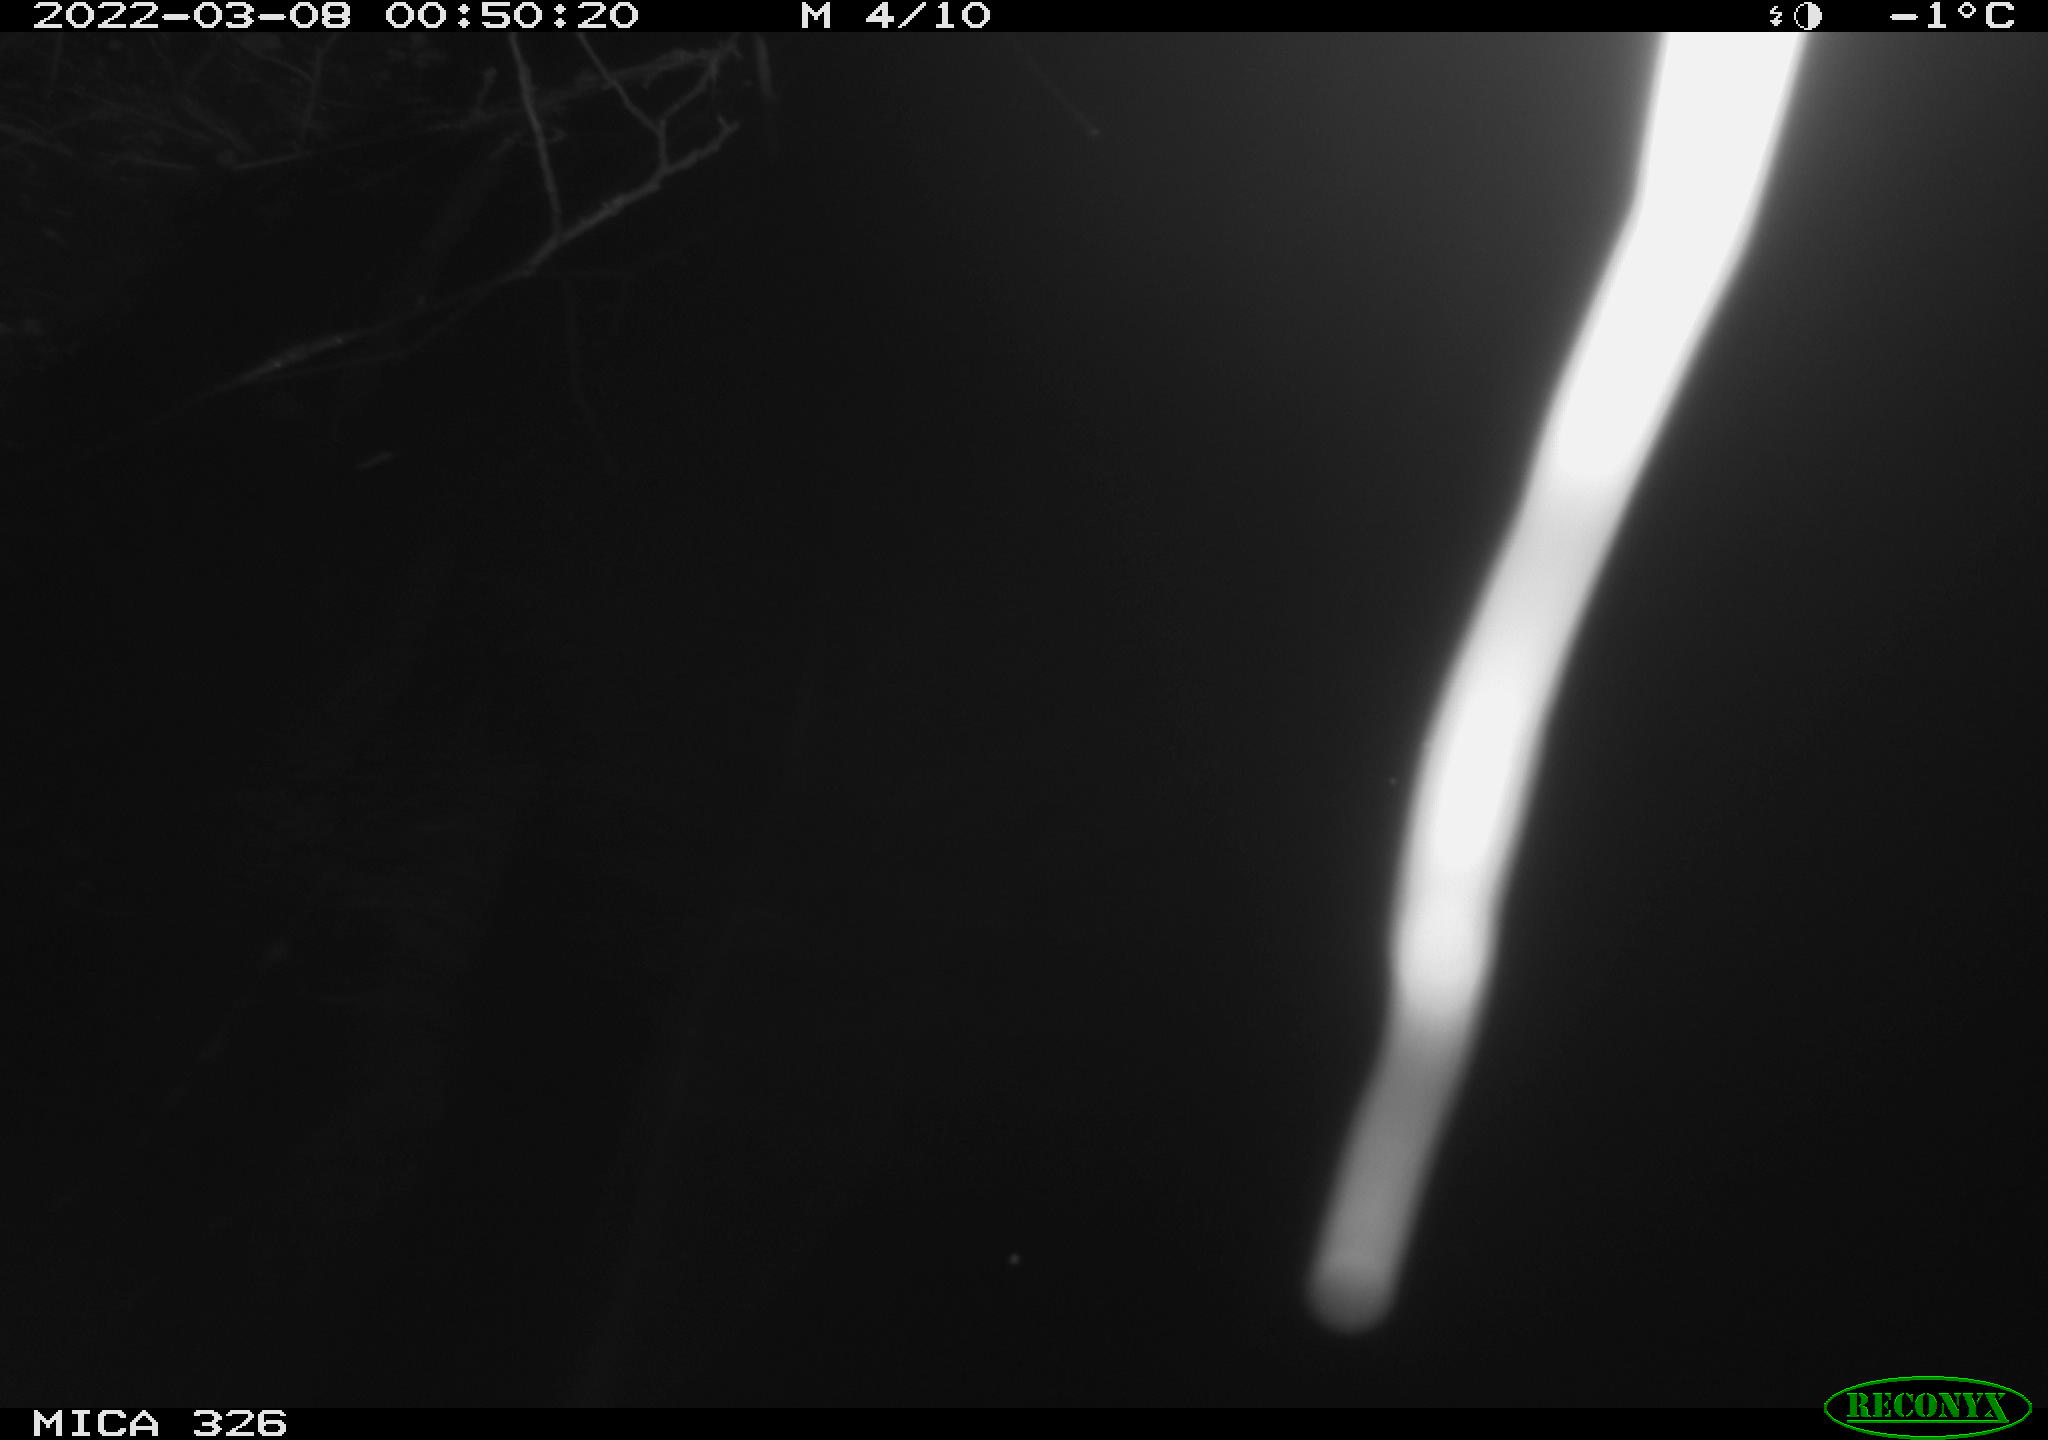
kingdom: Animalia
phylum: Chordata
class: Mammalia
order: Rodentia
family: Muridae
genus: Rattus
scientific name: Rattus norvegicus
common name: Brown rat
